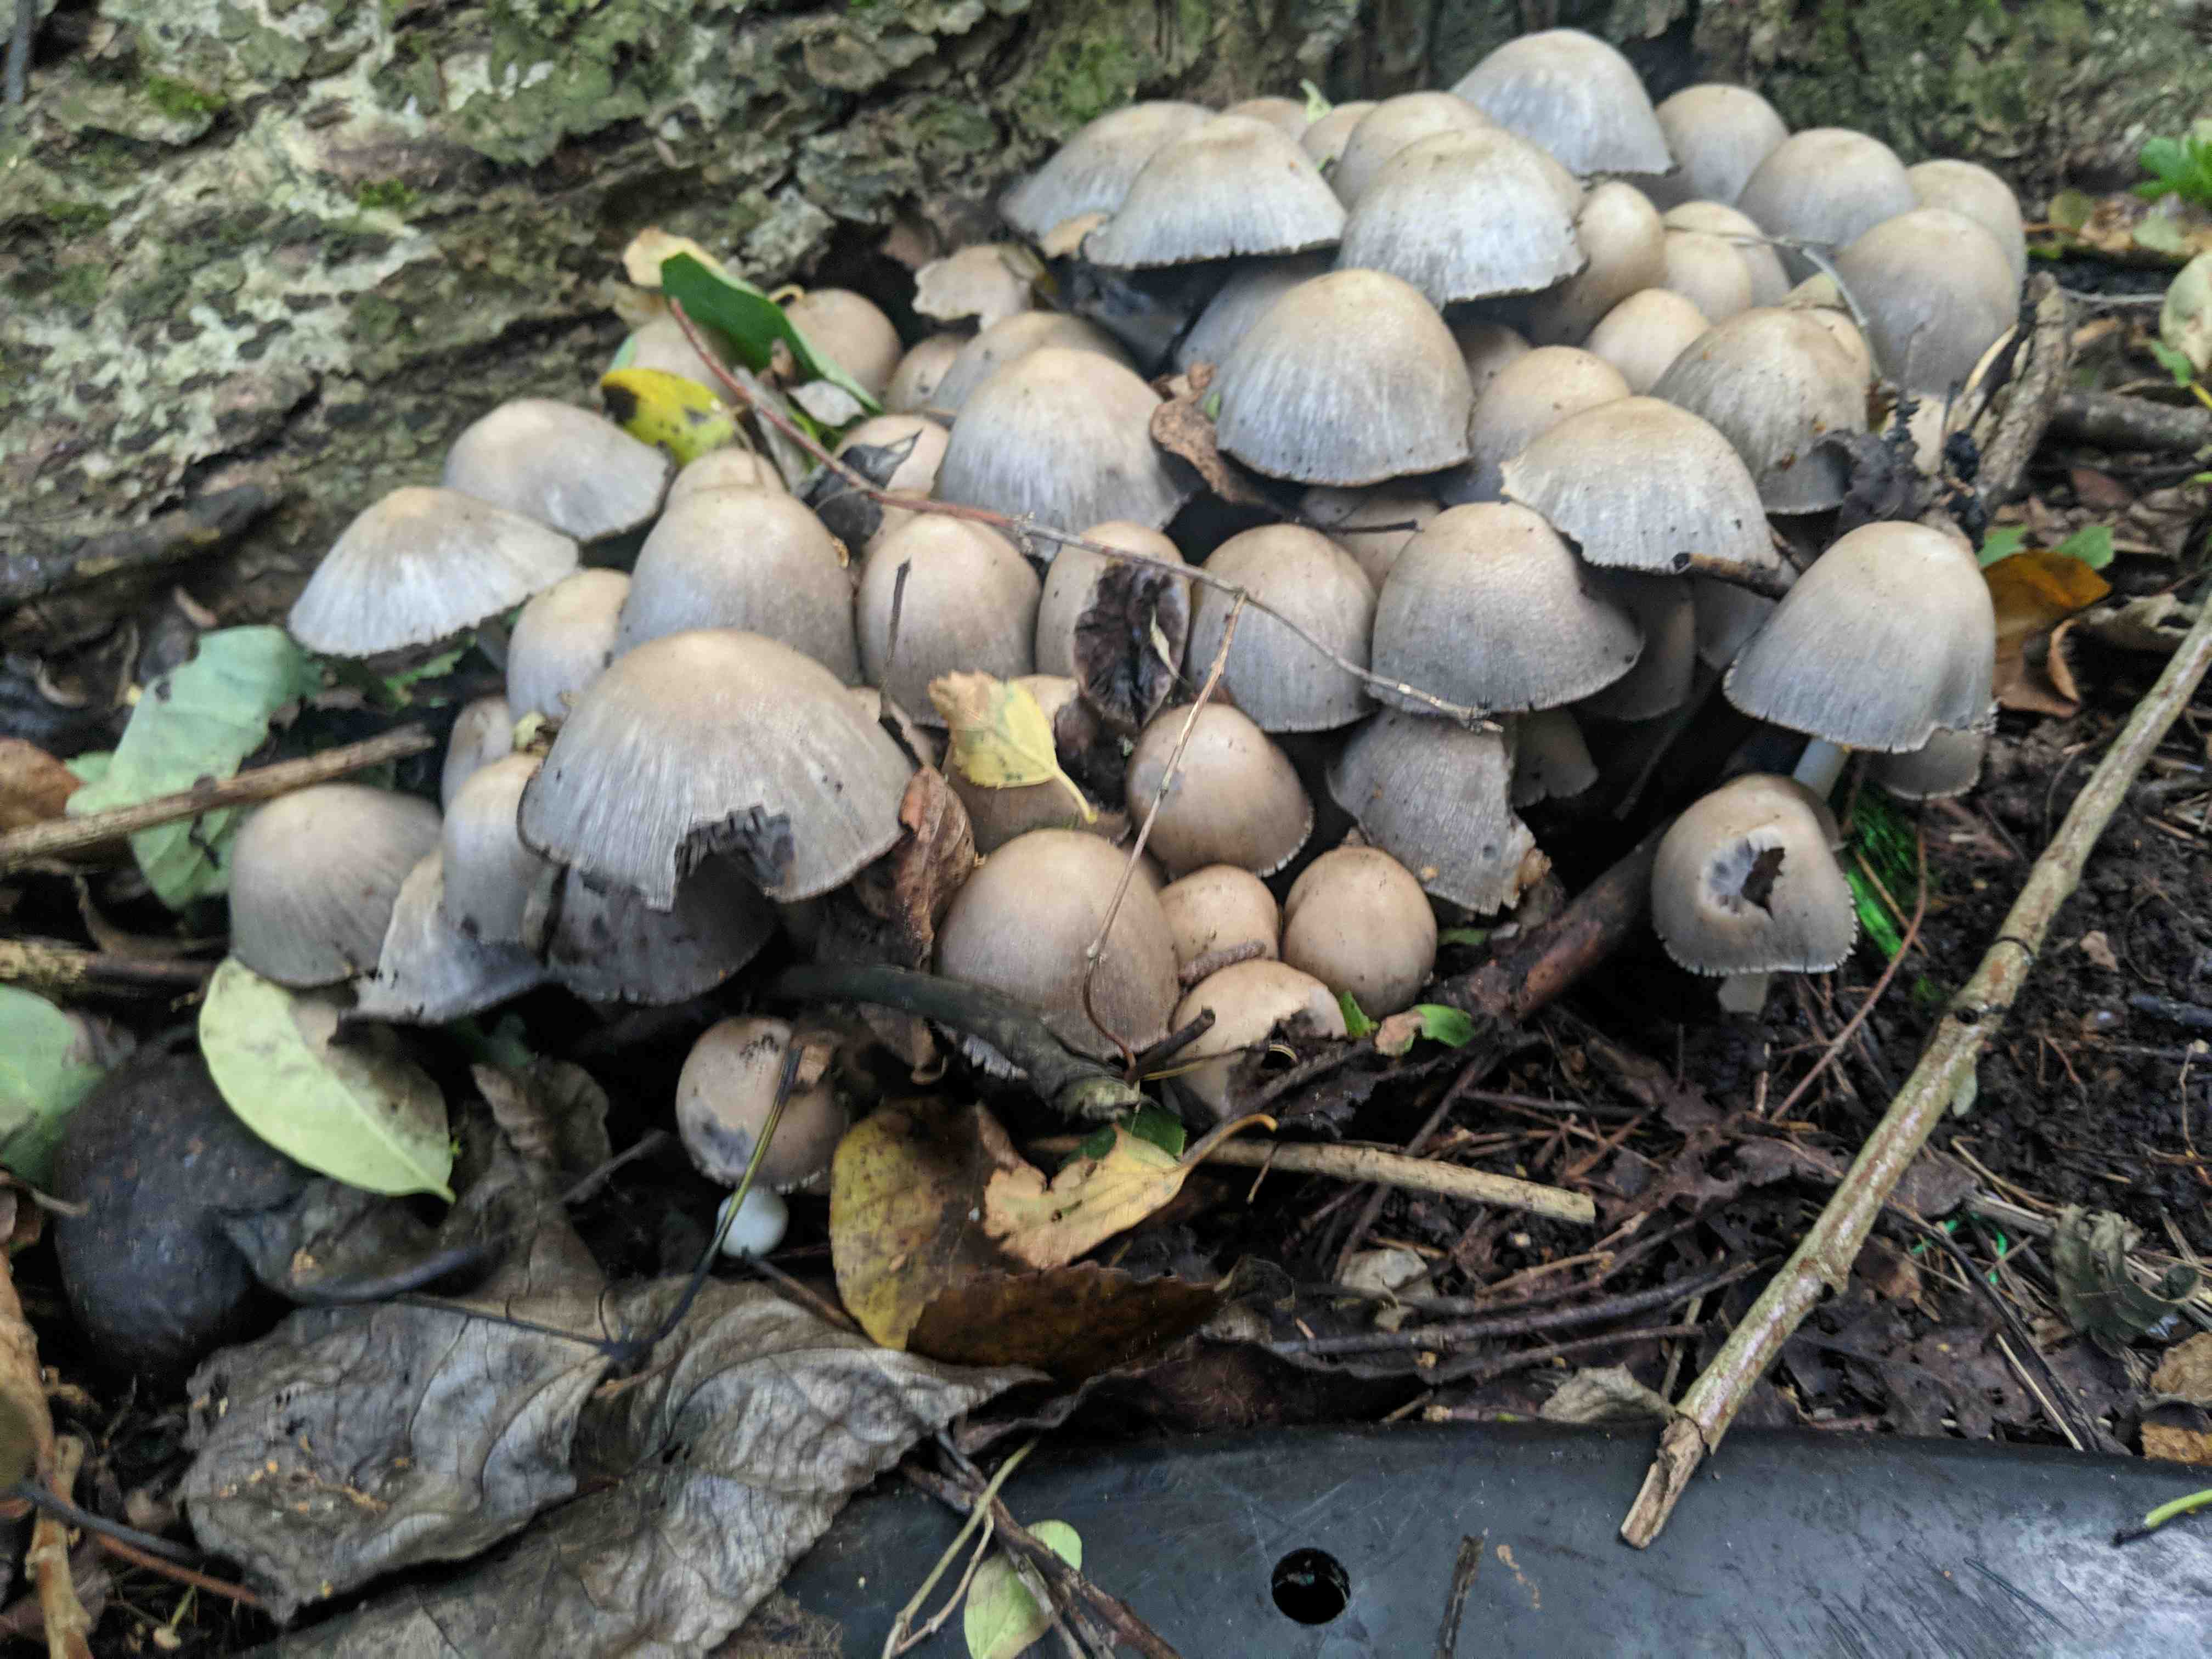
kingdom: Fungi
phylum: Basidiomycota
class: Agaricomycetes
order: Agaricales
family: Psathyrellaceae
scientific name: Psathyrellaceae
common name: mørkhatfamilien
